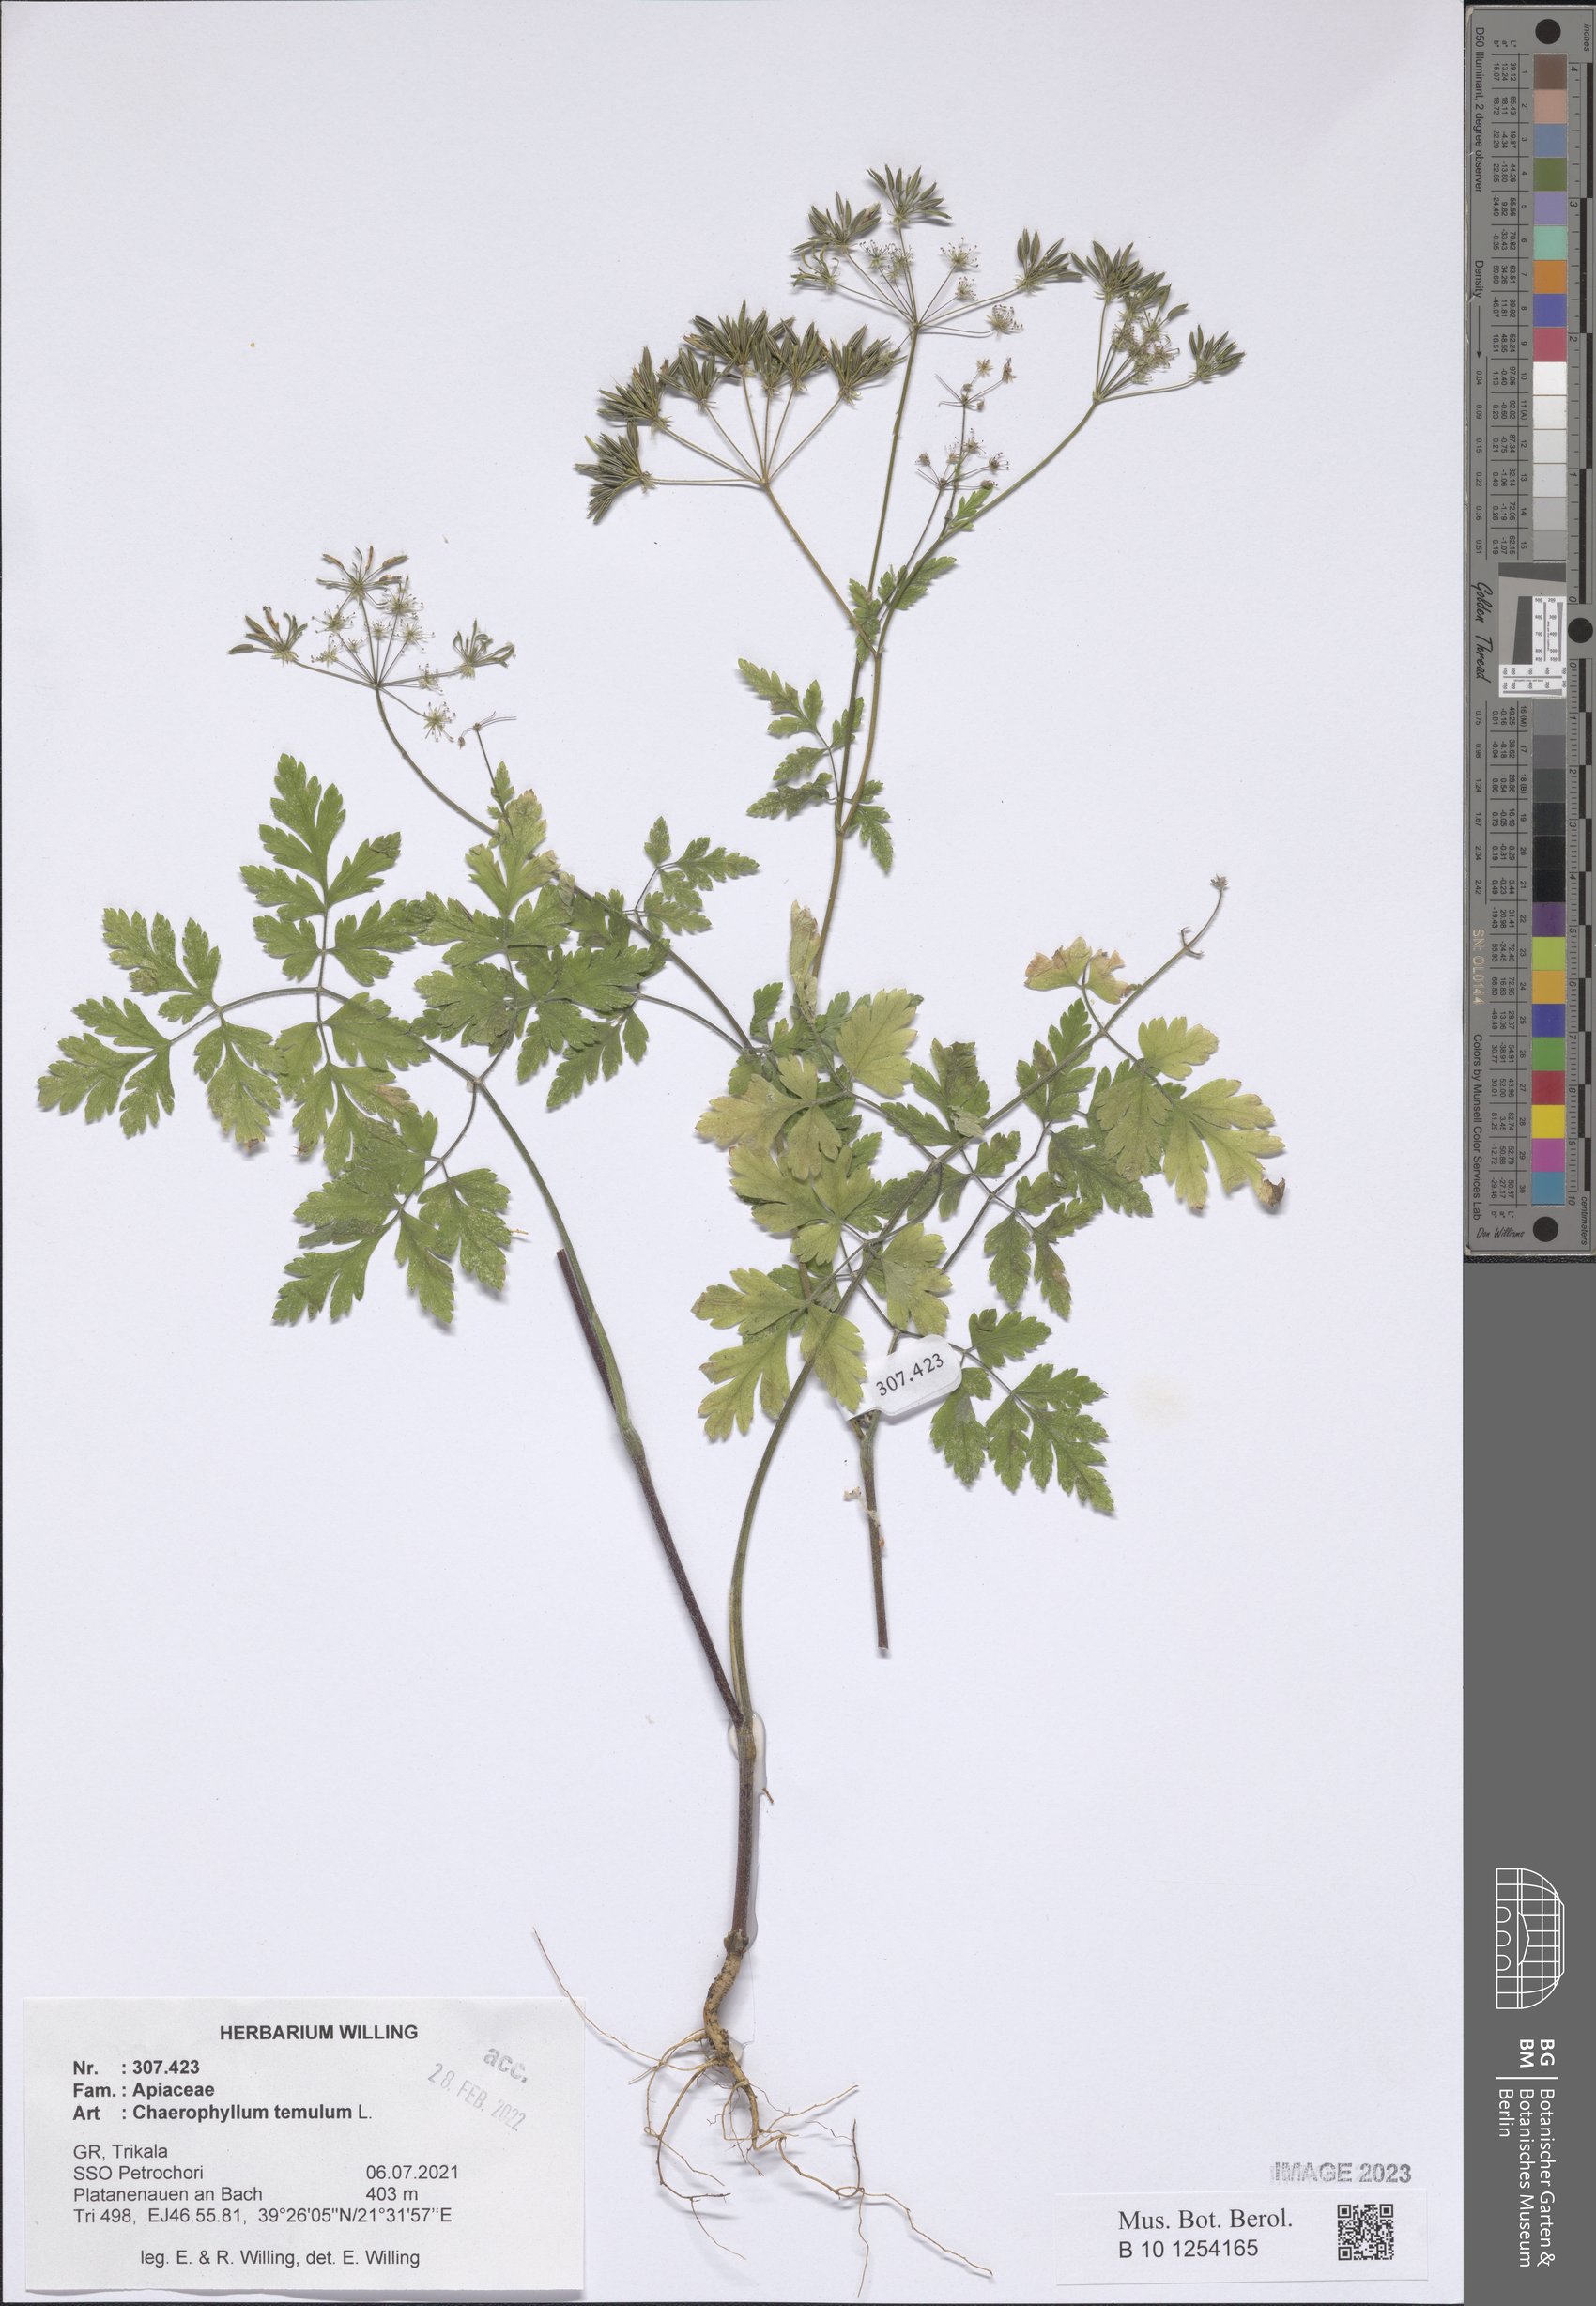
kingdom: Plantae
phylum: Tracheophyta
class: Magnoliopsida
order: Apiales
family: Apiaceae
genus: Chaerophyllum
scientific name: Chaerophyllum temulum
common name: Rough chervil
